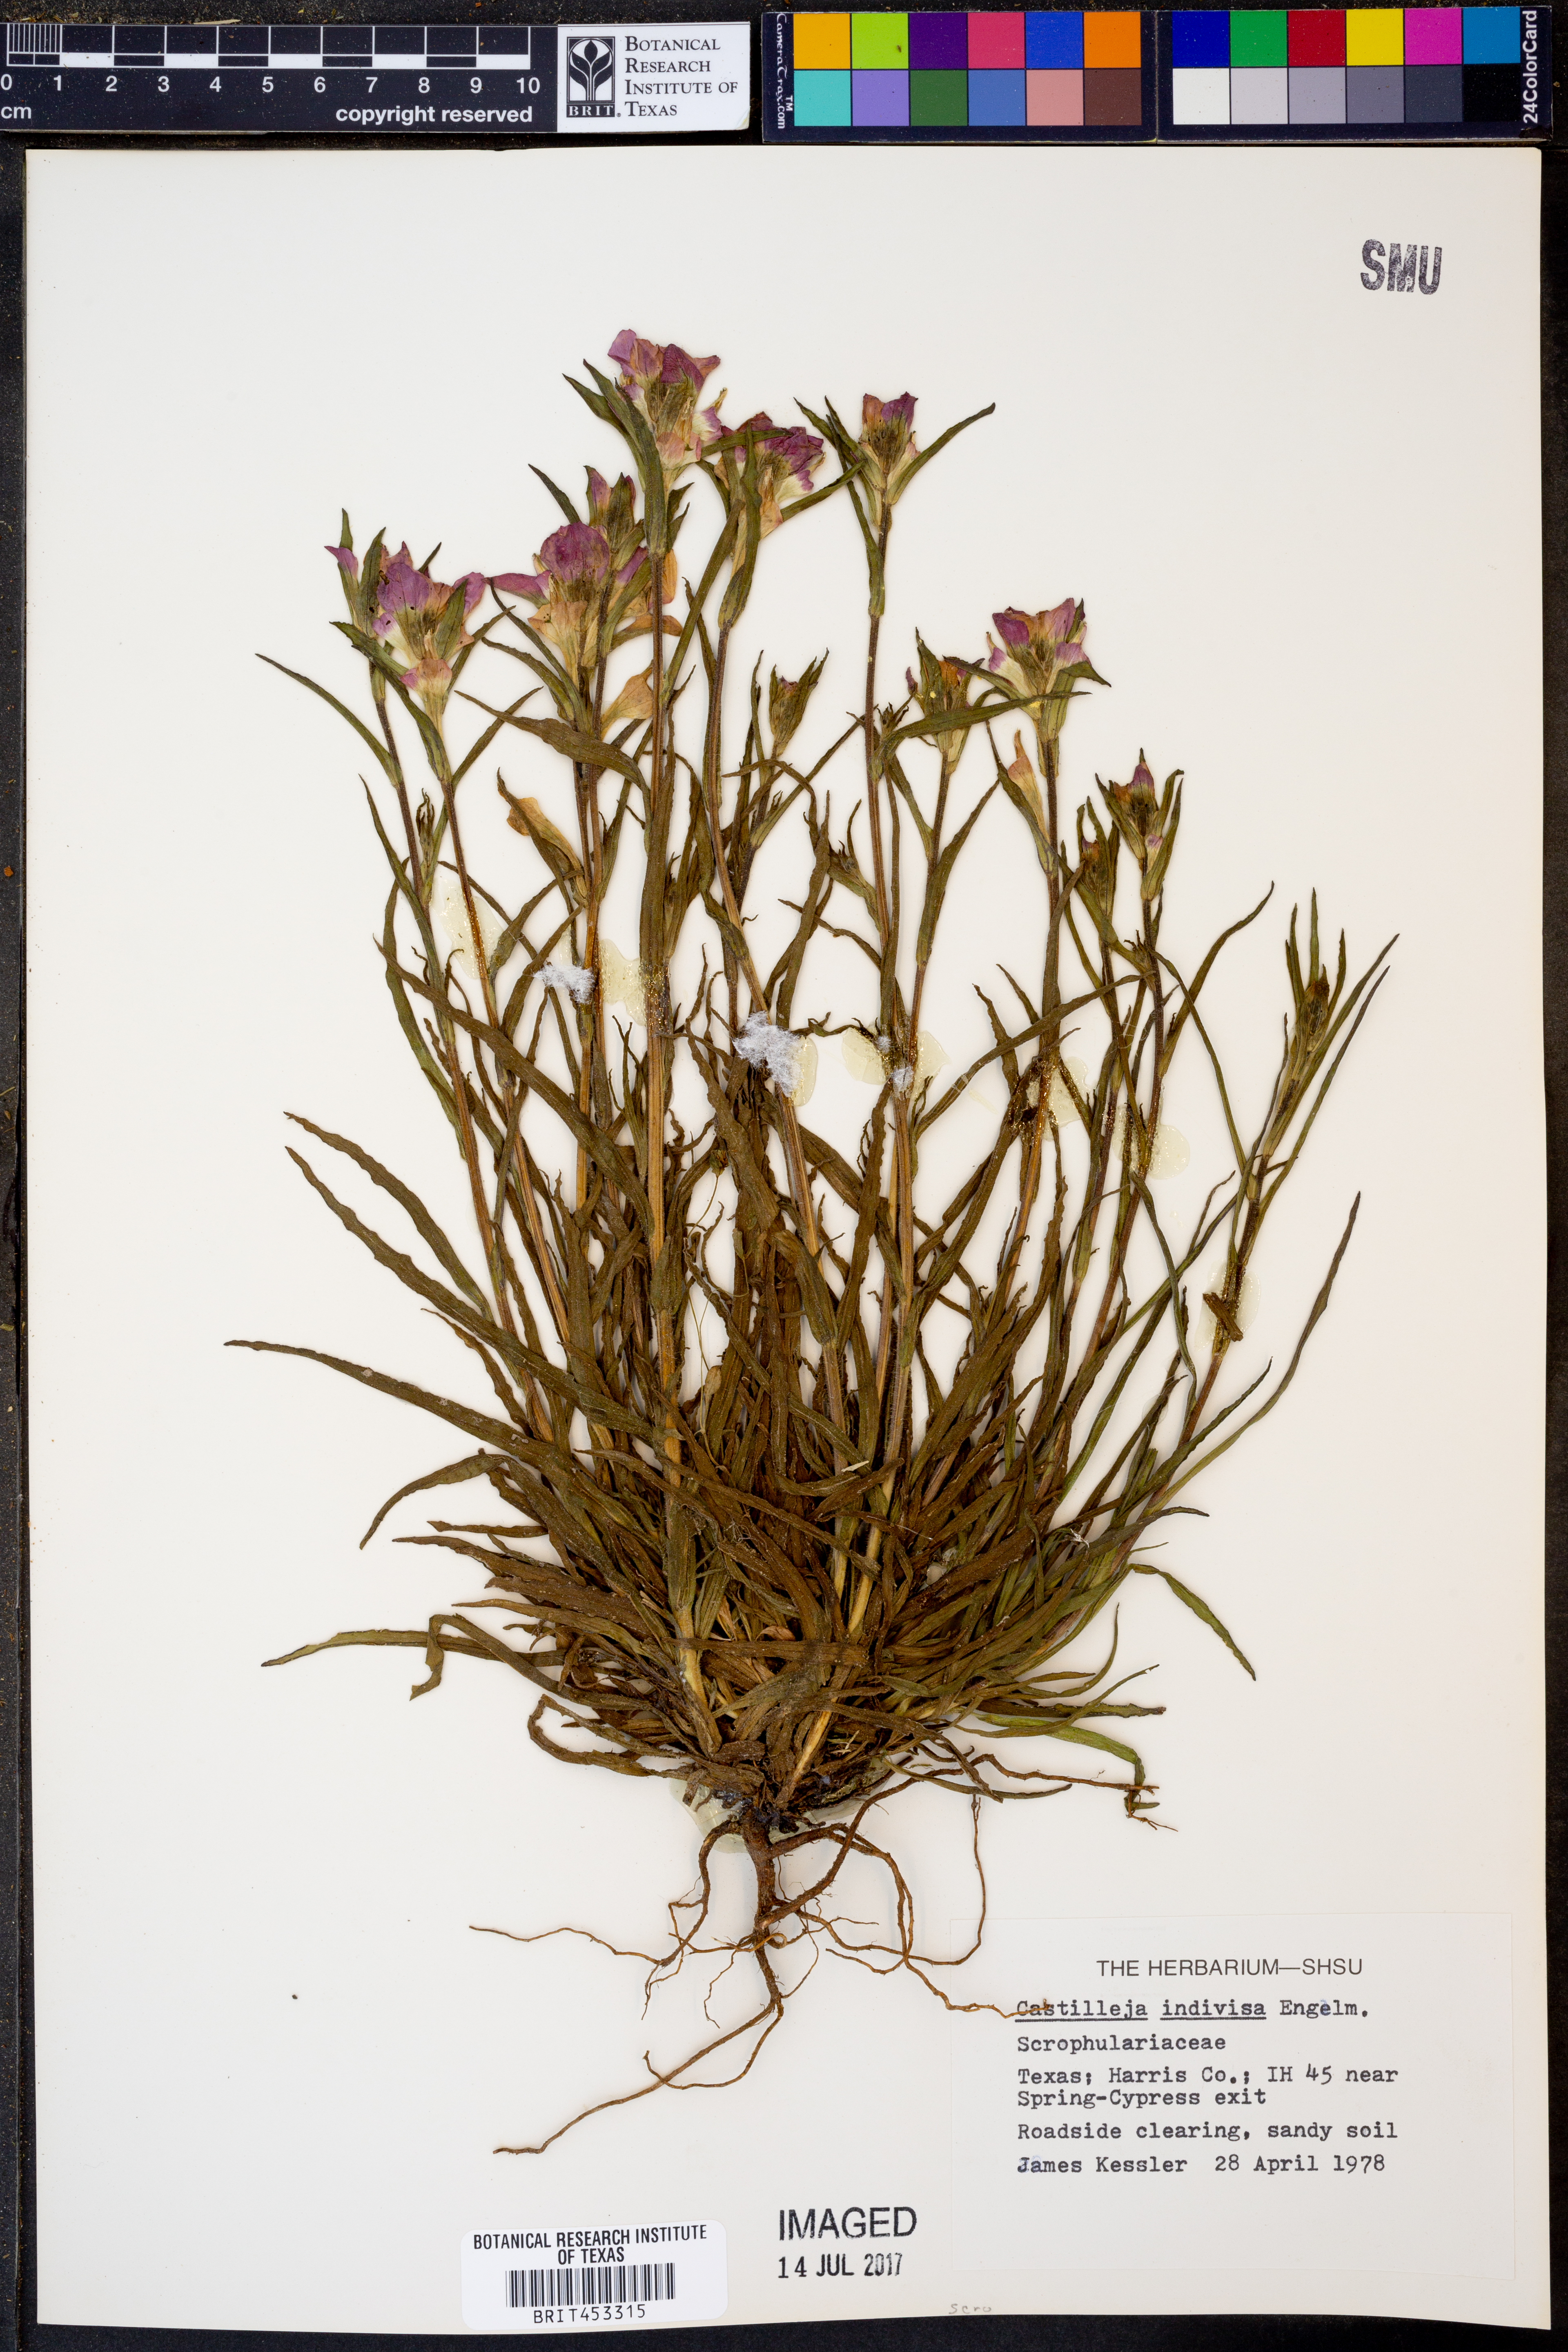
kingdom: Plantae
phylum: Tracheophyta
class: Magnoliopsida
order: Lamiales
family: Orobanchaceae
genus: Castilleja
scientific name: Castilleja indivisa
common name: Texas paintbrush
